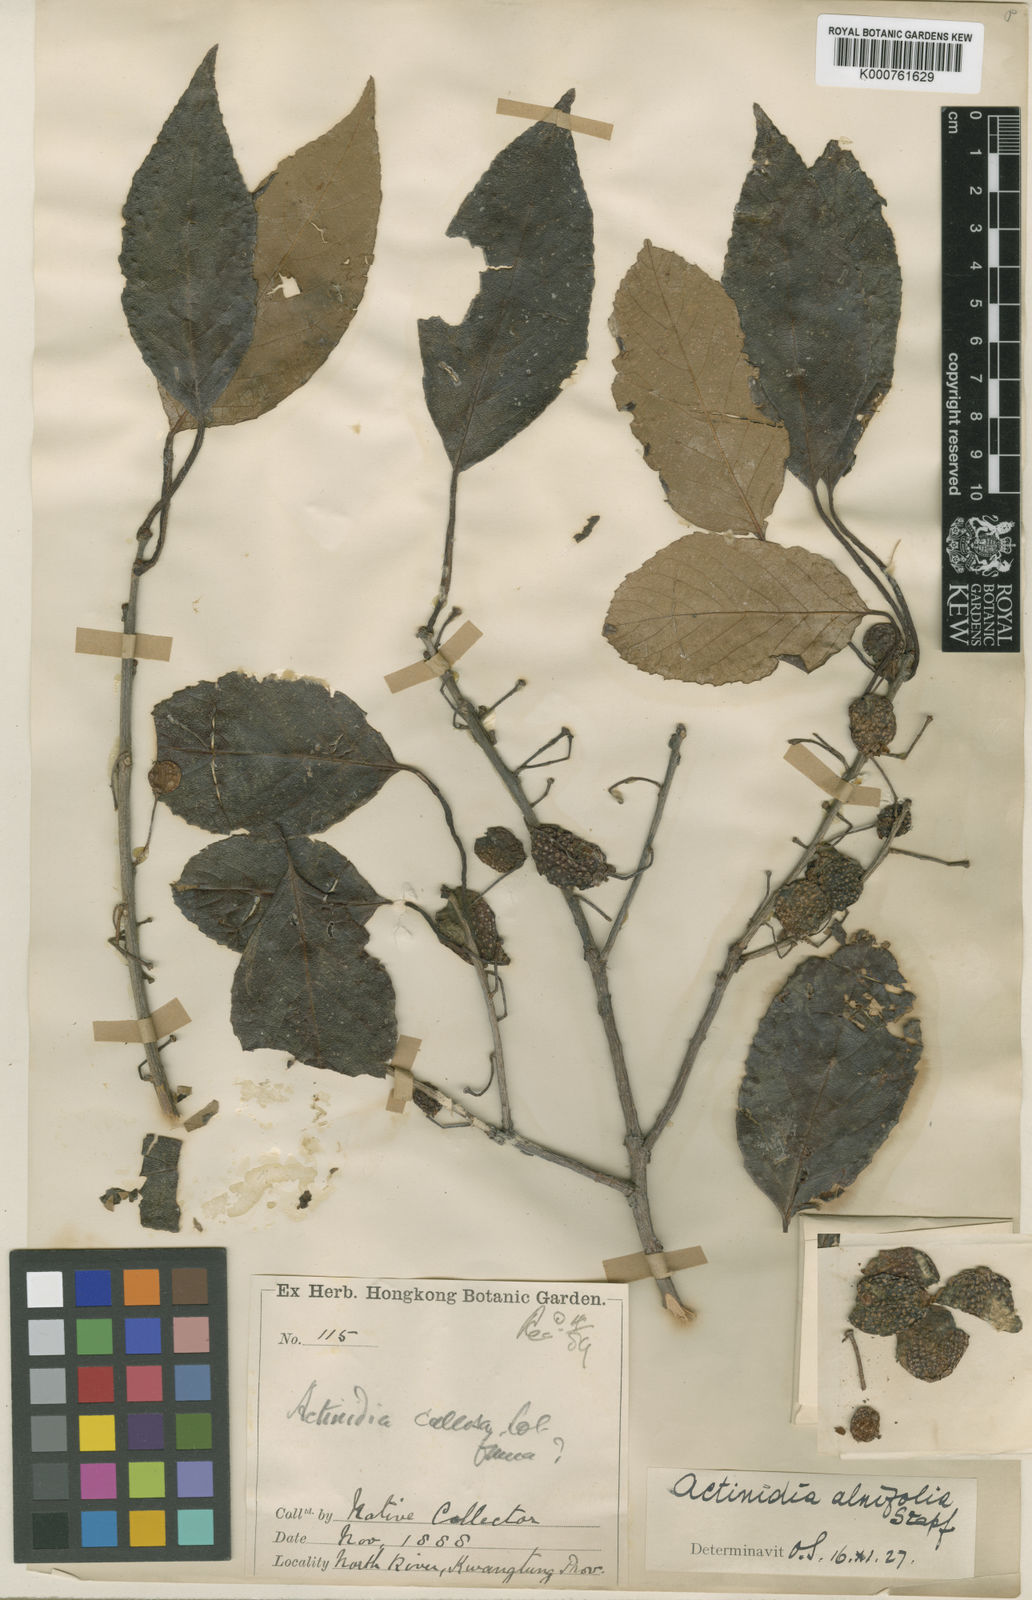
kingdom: Plantae
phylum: Tracheophyta
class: Magnoliopsida
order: Ericales
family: Actinidiaceae
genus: Actinidia
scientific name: Actinidia
